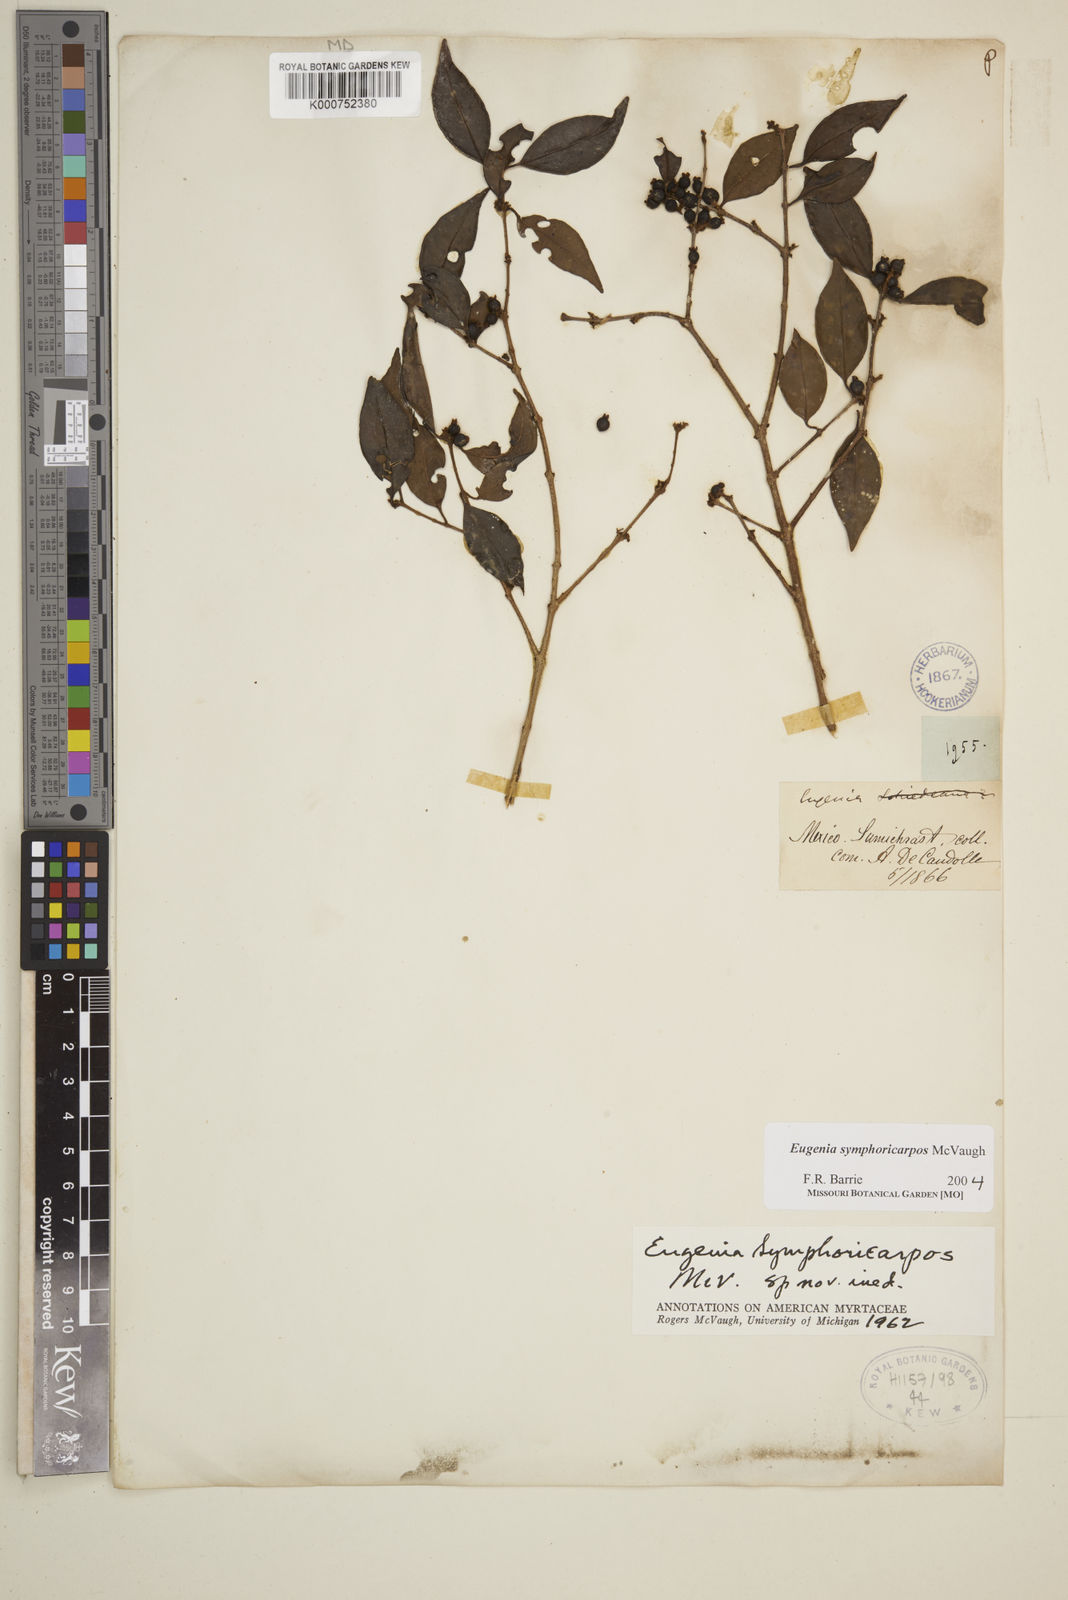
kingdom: Plantae
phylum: Tracheophyta
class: Magnoliopsida
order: Myrtales
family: Myrtaceae
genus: Eugenia
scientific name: Eugenia symphoricarpos
